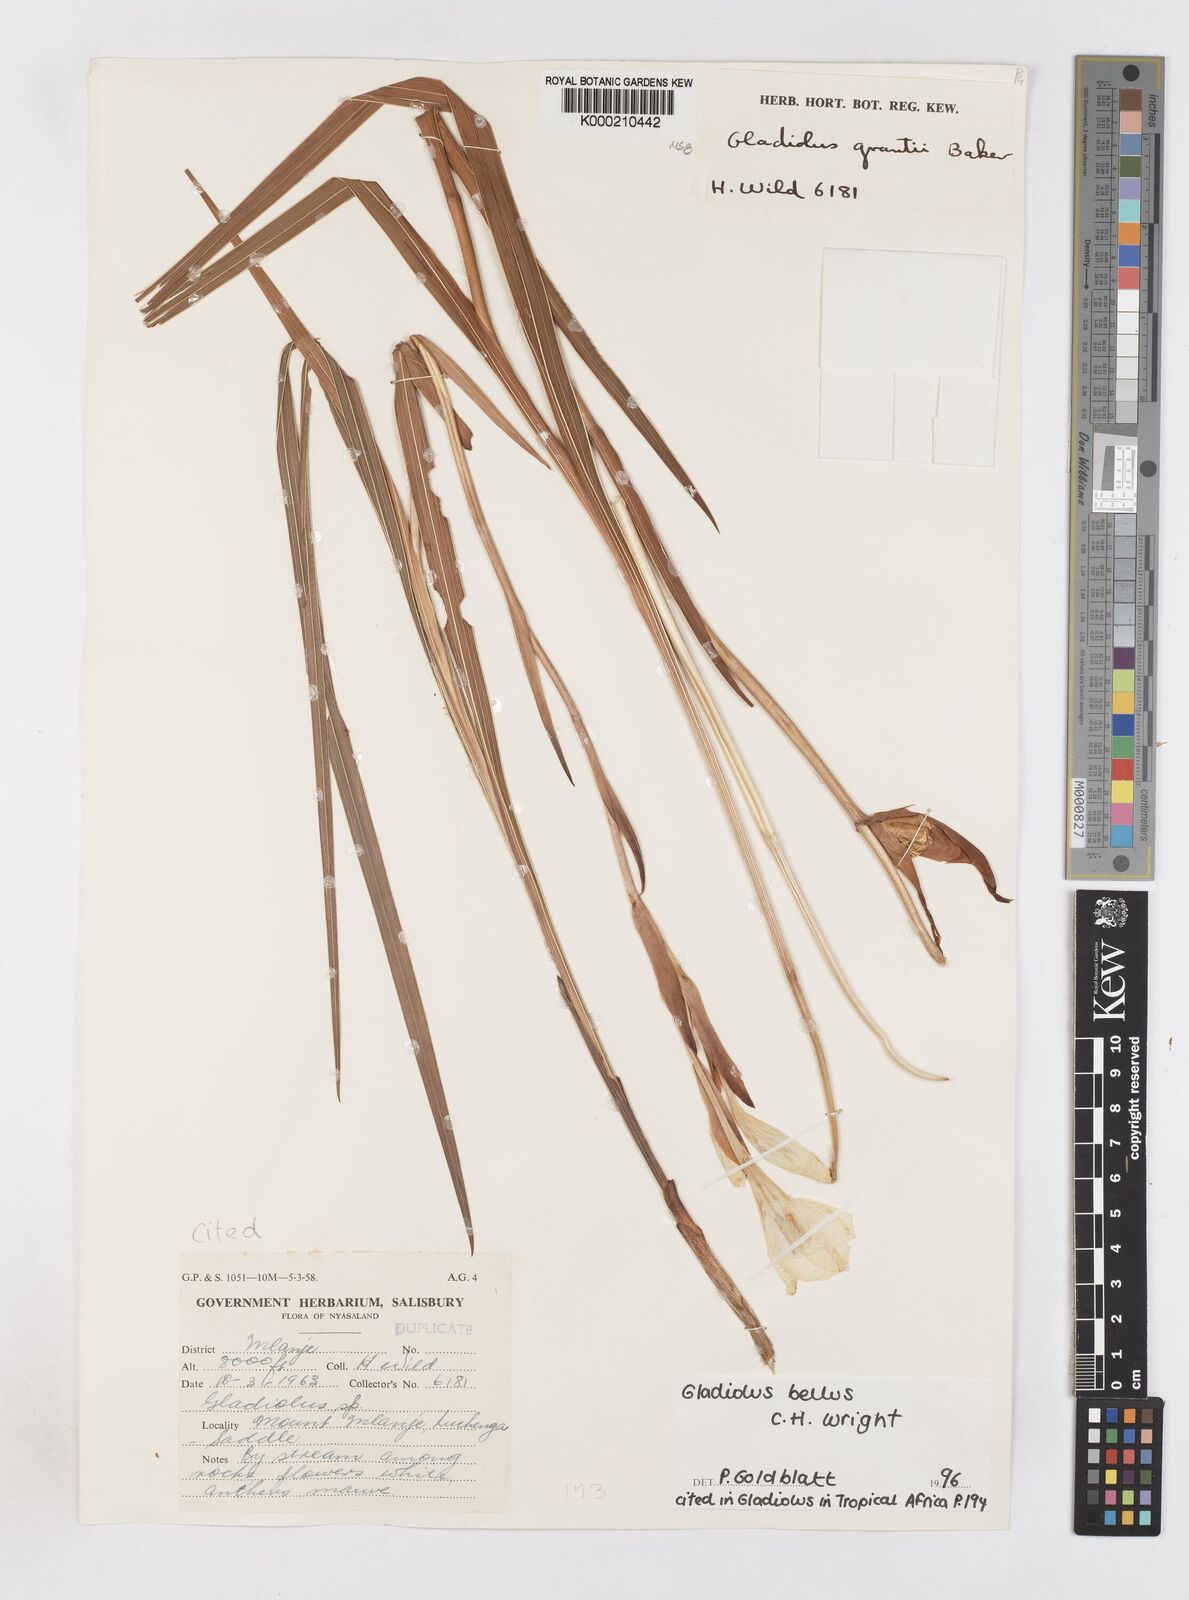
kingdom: Plantae
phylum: Tracheophyta
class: Liliopsida
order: Asparagales
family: Iridaceae
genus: Gladiolus
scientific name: Gladiolus bellus
